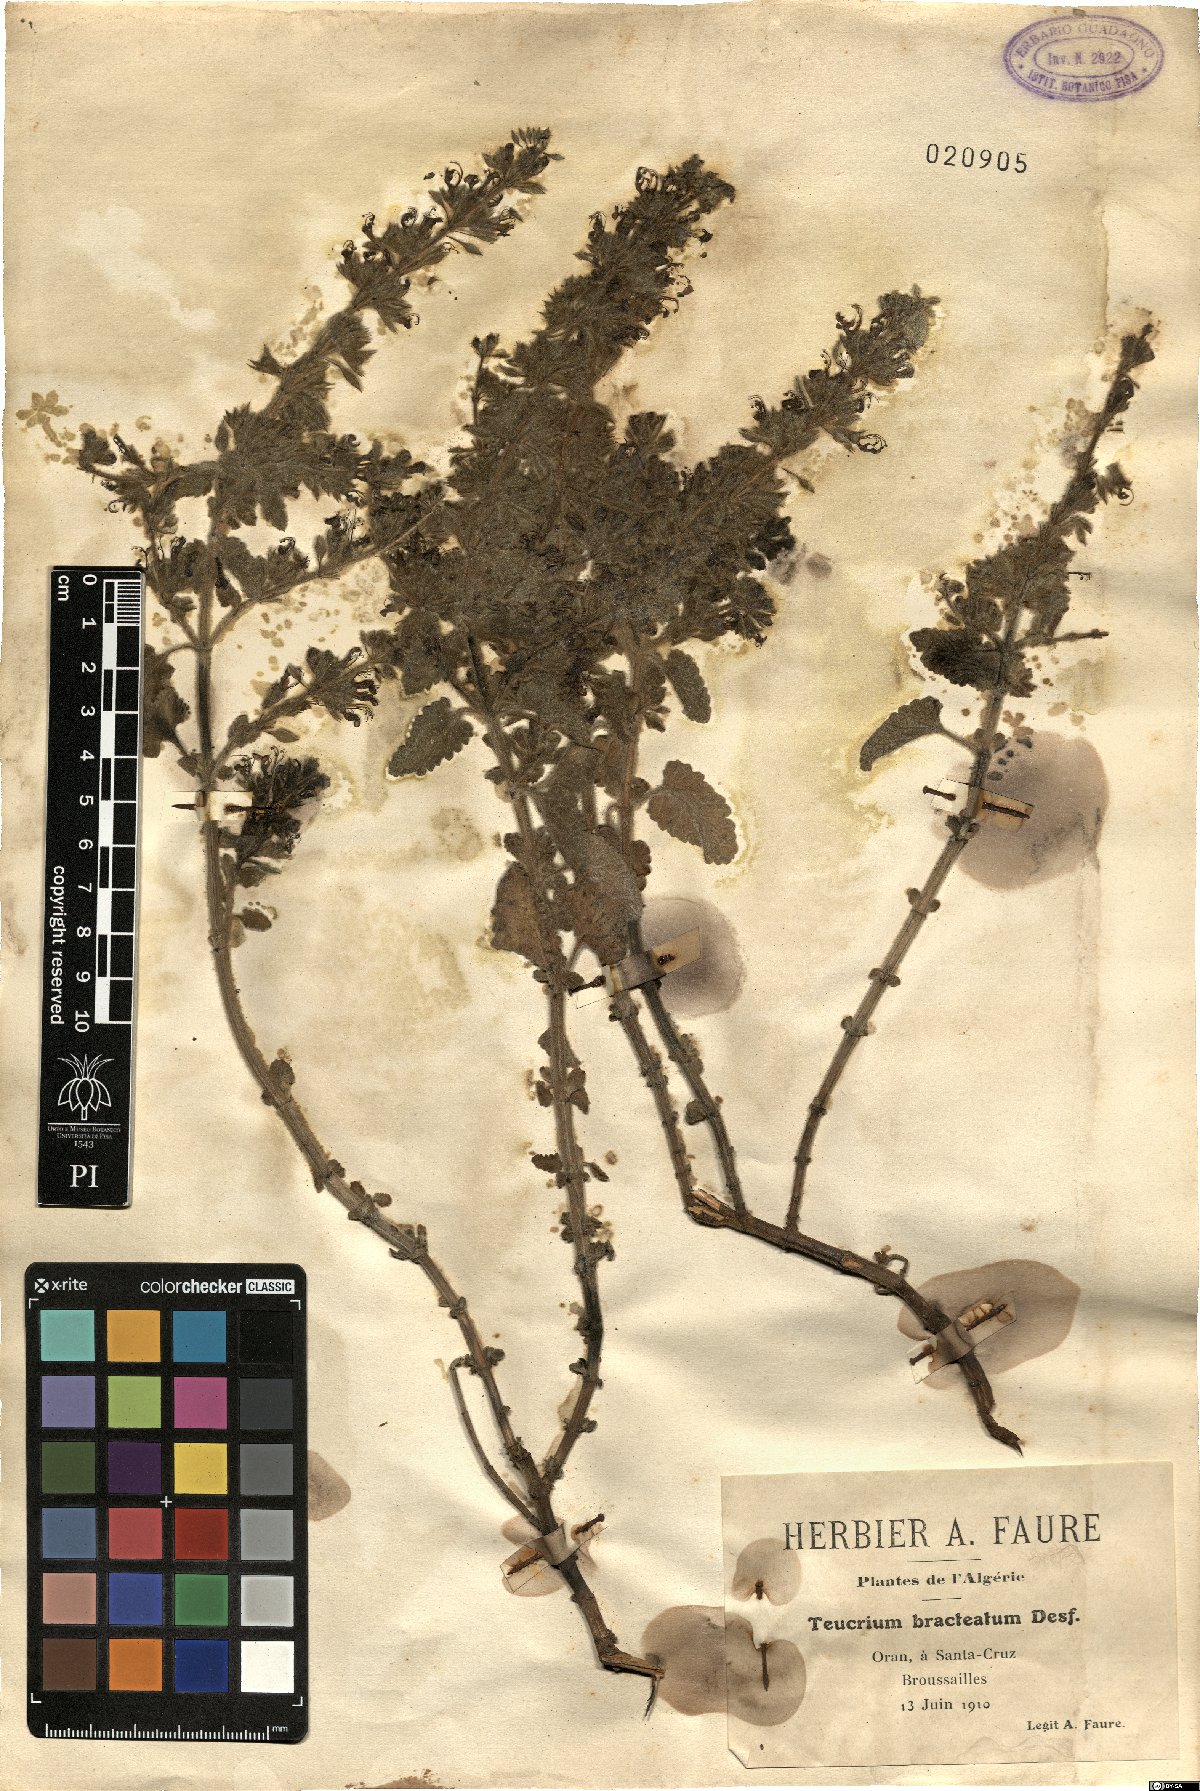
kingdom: Plantae
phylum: Tracheophyta
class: Magnoliopsida
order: Lamiales
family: Lamiaceae
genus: Teucrium
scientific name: Teucrium bracteatum
